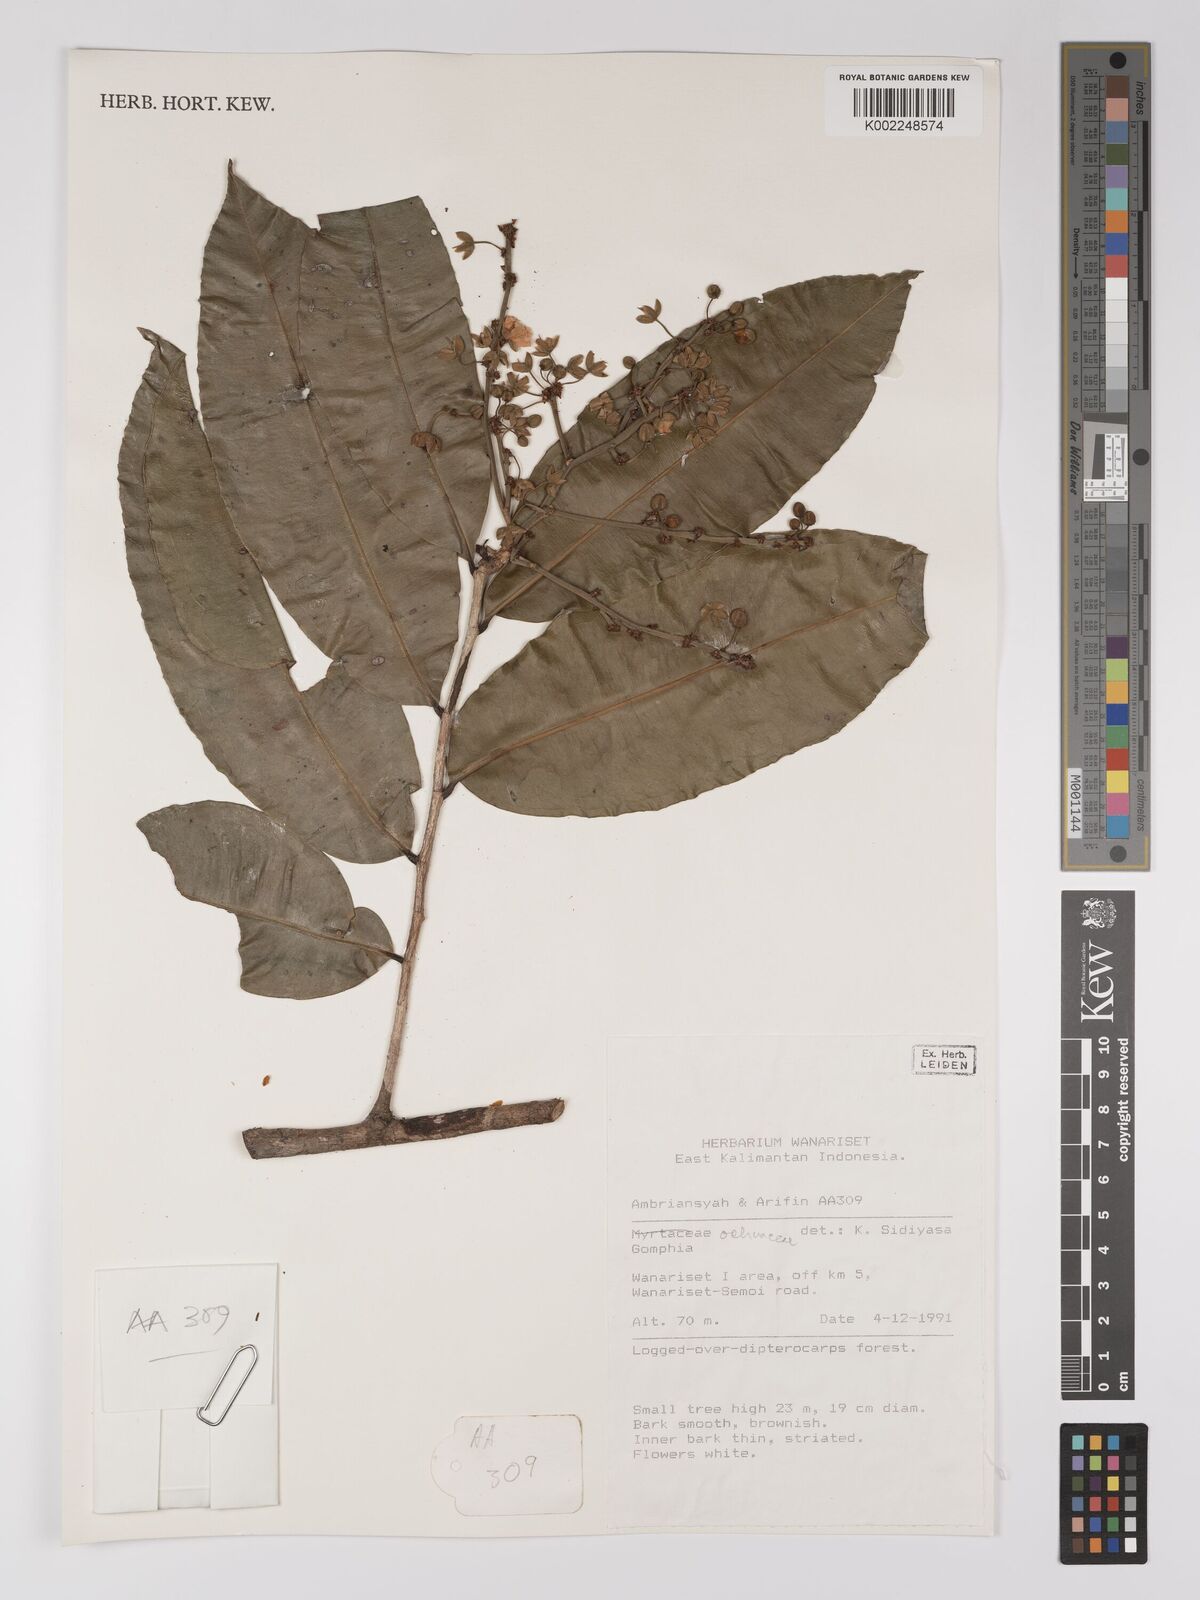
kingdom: Plantae
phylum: Tracheophyta
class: Magnoliopsida
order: Malpighiales
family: Ochnaceae
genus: Campylospermum
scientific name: Campylospermum
